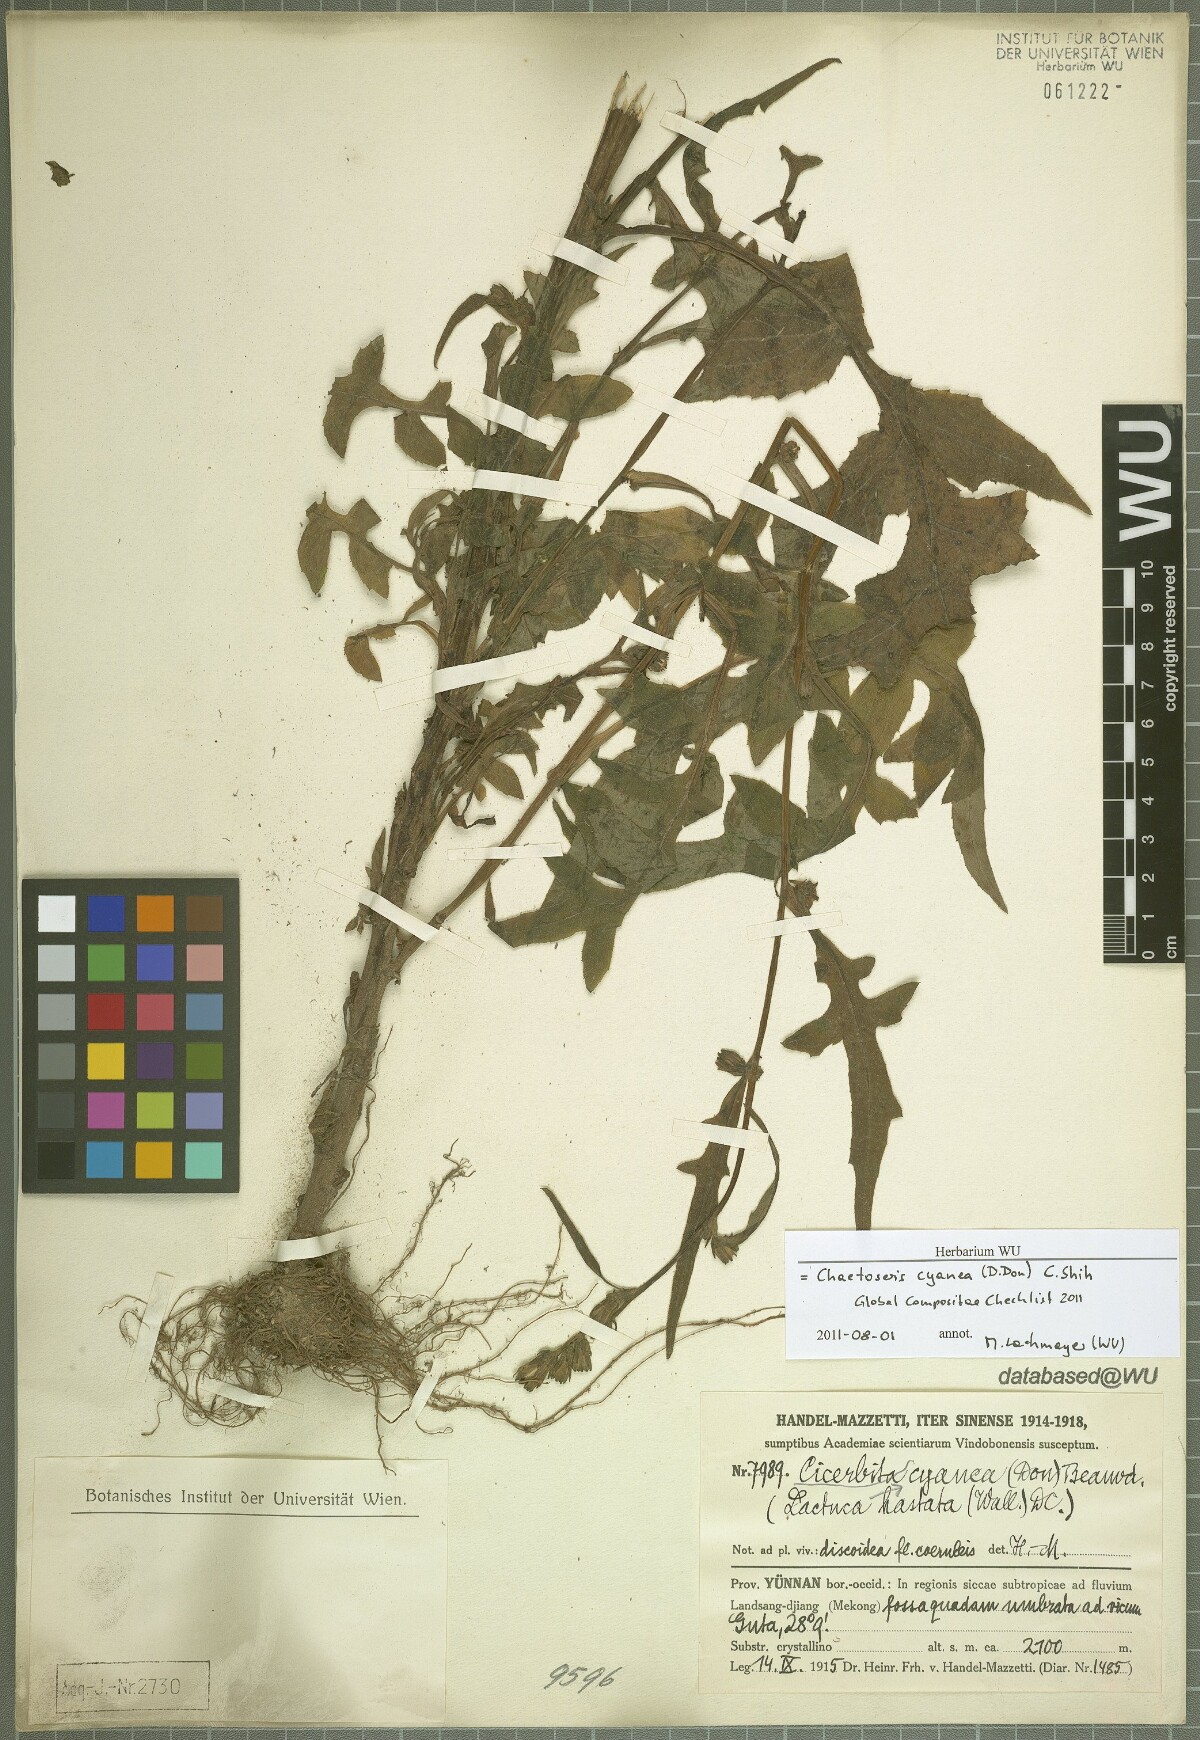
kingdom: Plantae
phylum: Tracheophyta
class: Magnoliopsida
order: Asterales
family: Asteraceae
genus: Melanoseris
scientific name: Melanoseris cyanea
